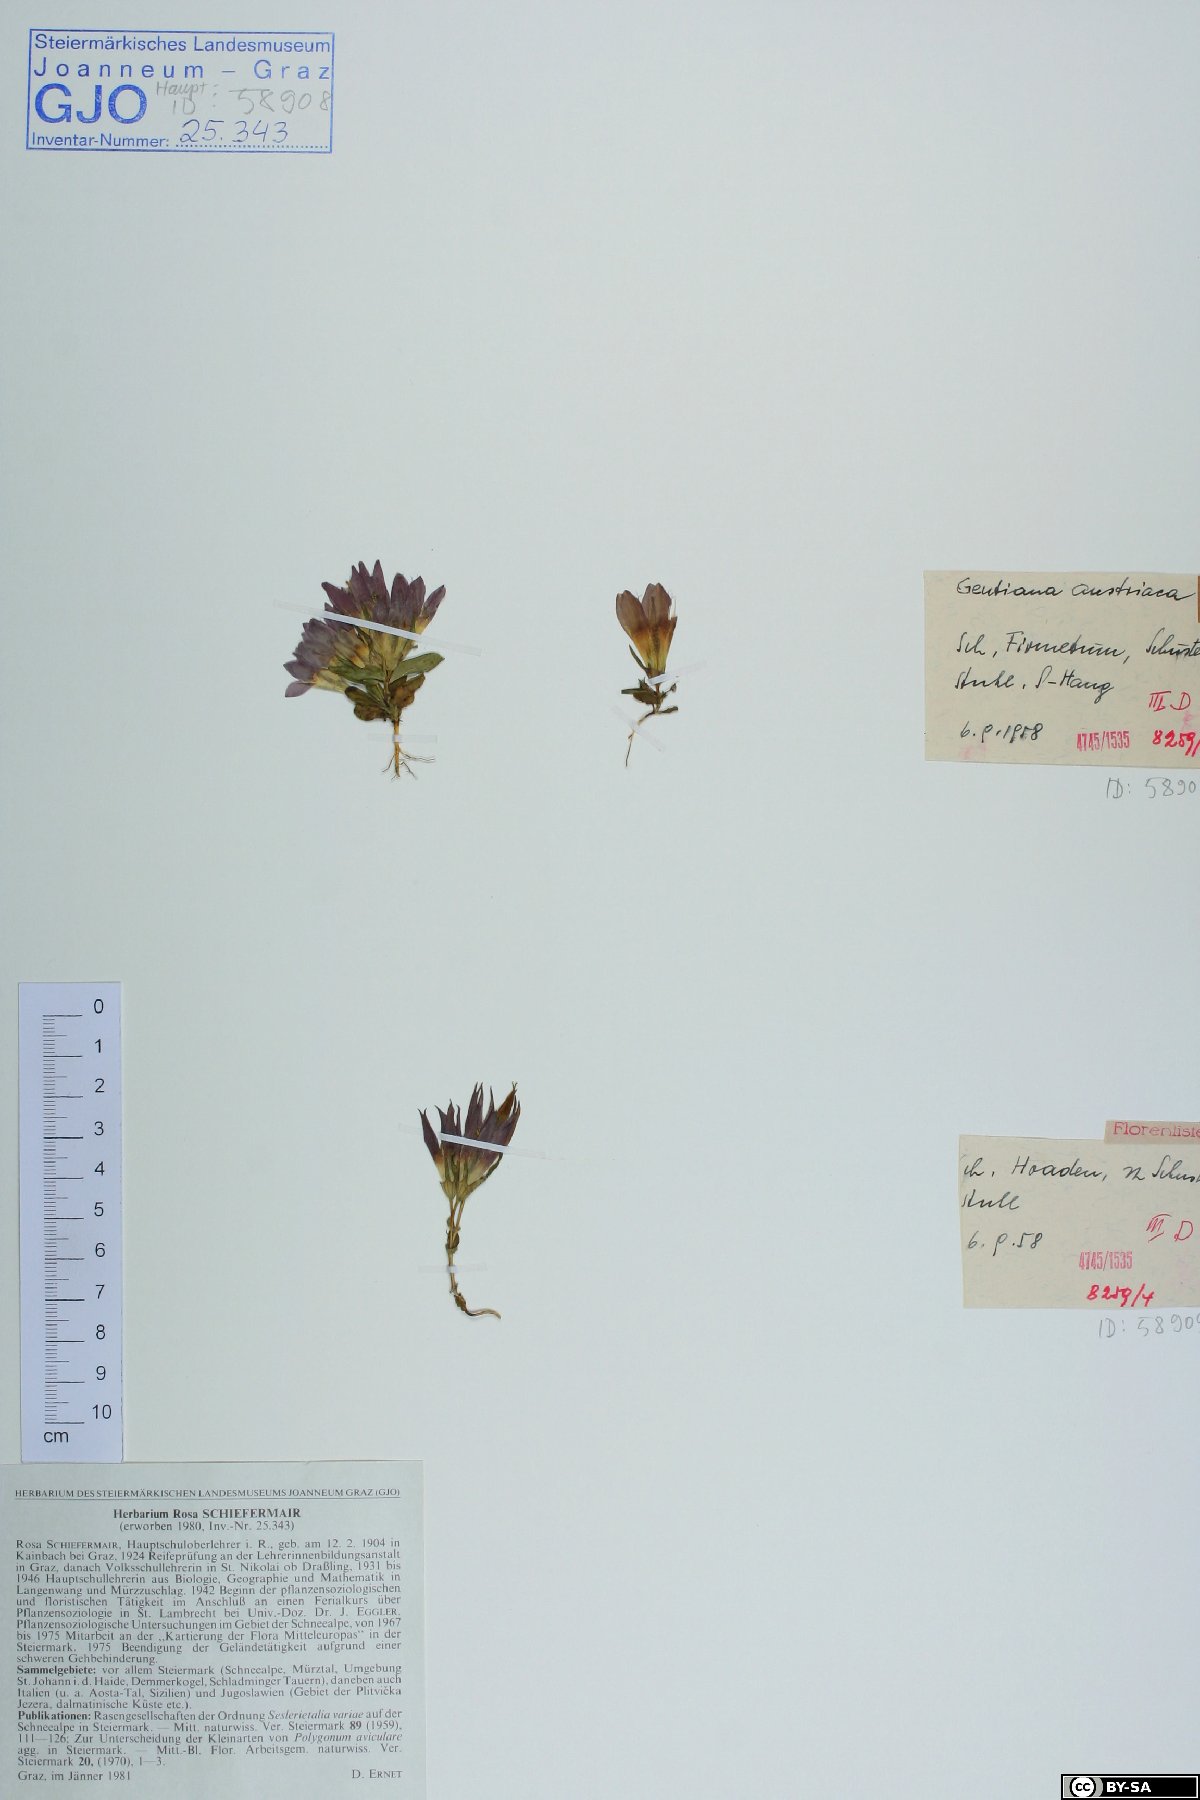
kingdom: Plantae
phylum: Tracheophyta
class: Magnoliopsida
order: Gentianales
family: Gentianaceae
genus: Gentianella
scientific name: Gentianella austriaca
